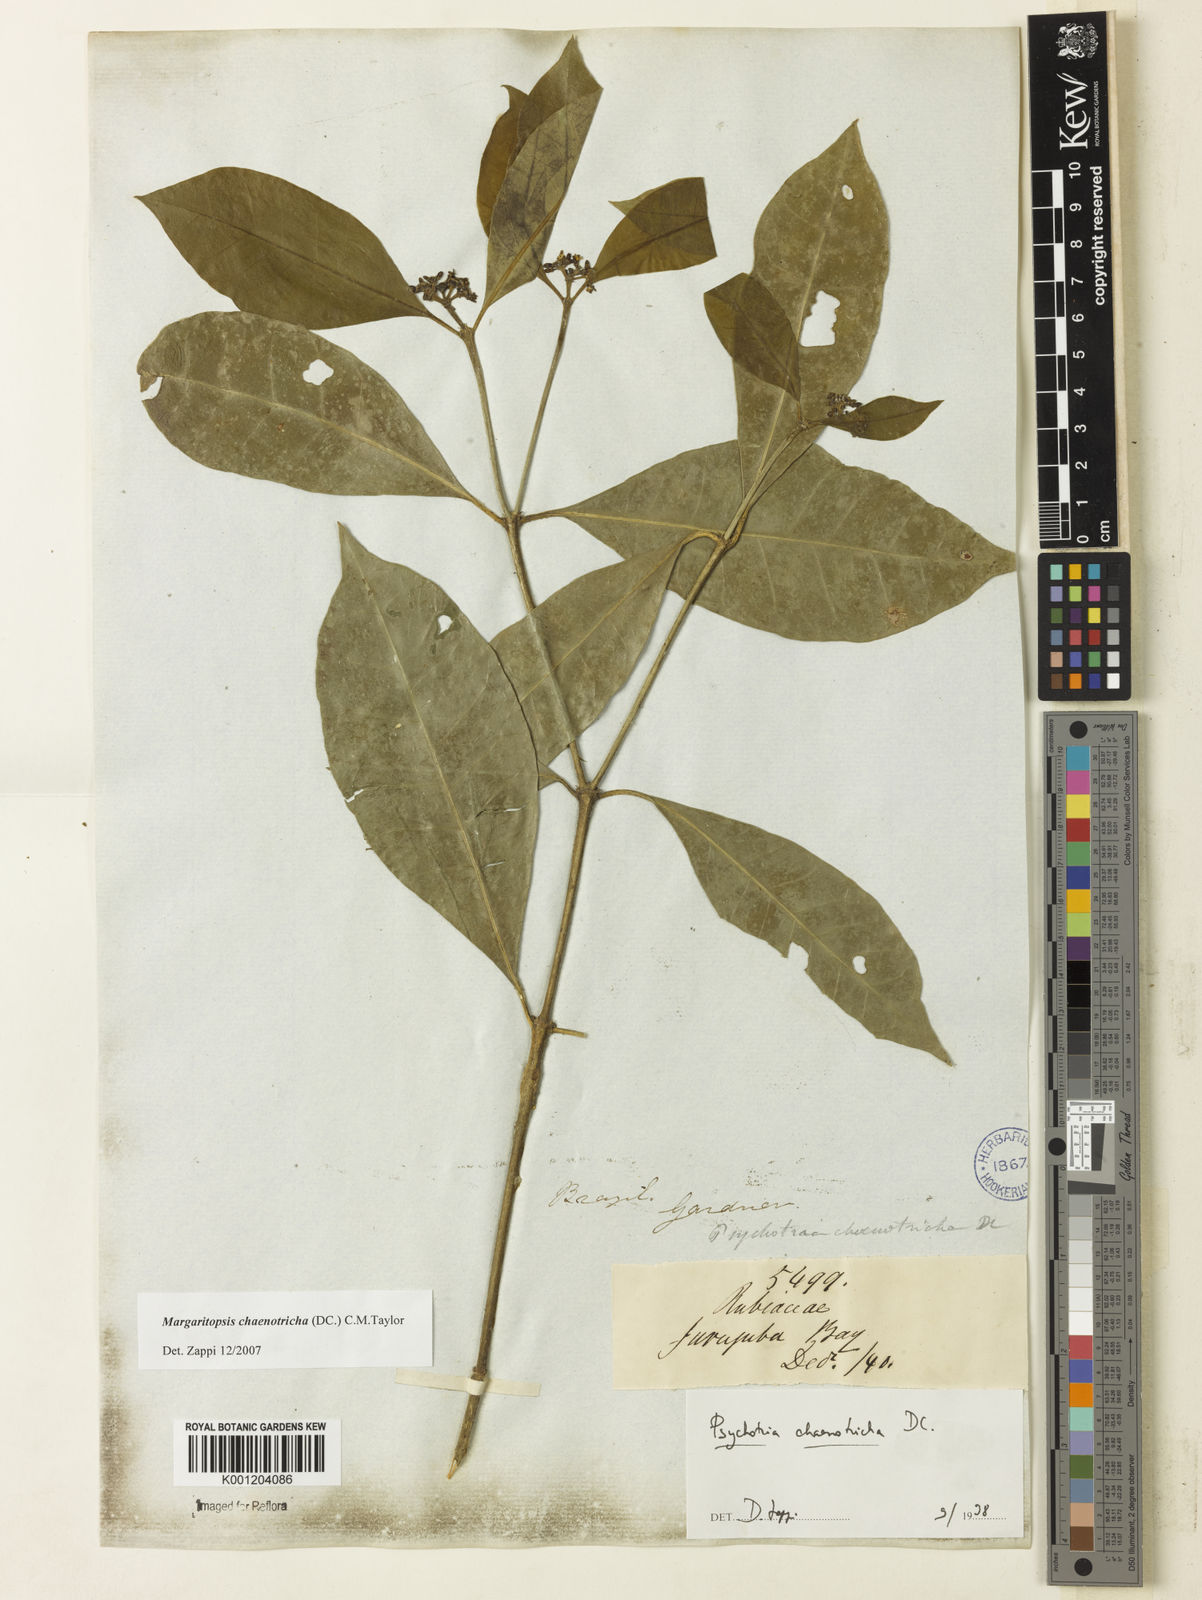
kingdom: Plantae
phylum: Tracheophyta
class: Magnoliopsida
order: Gentianales
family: Rubiaceae
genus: Eumachia
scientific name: Eumachia chaenotricha
